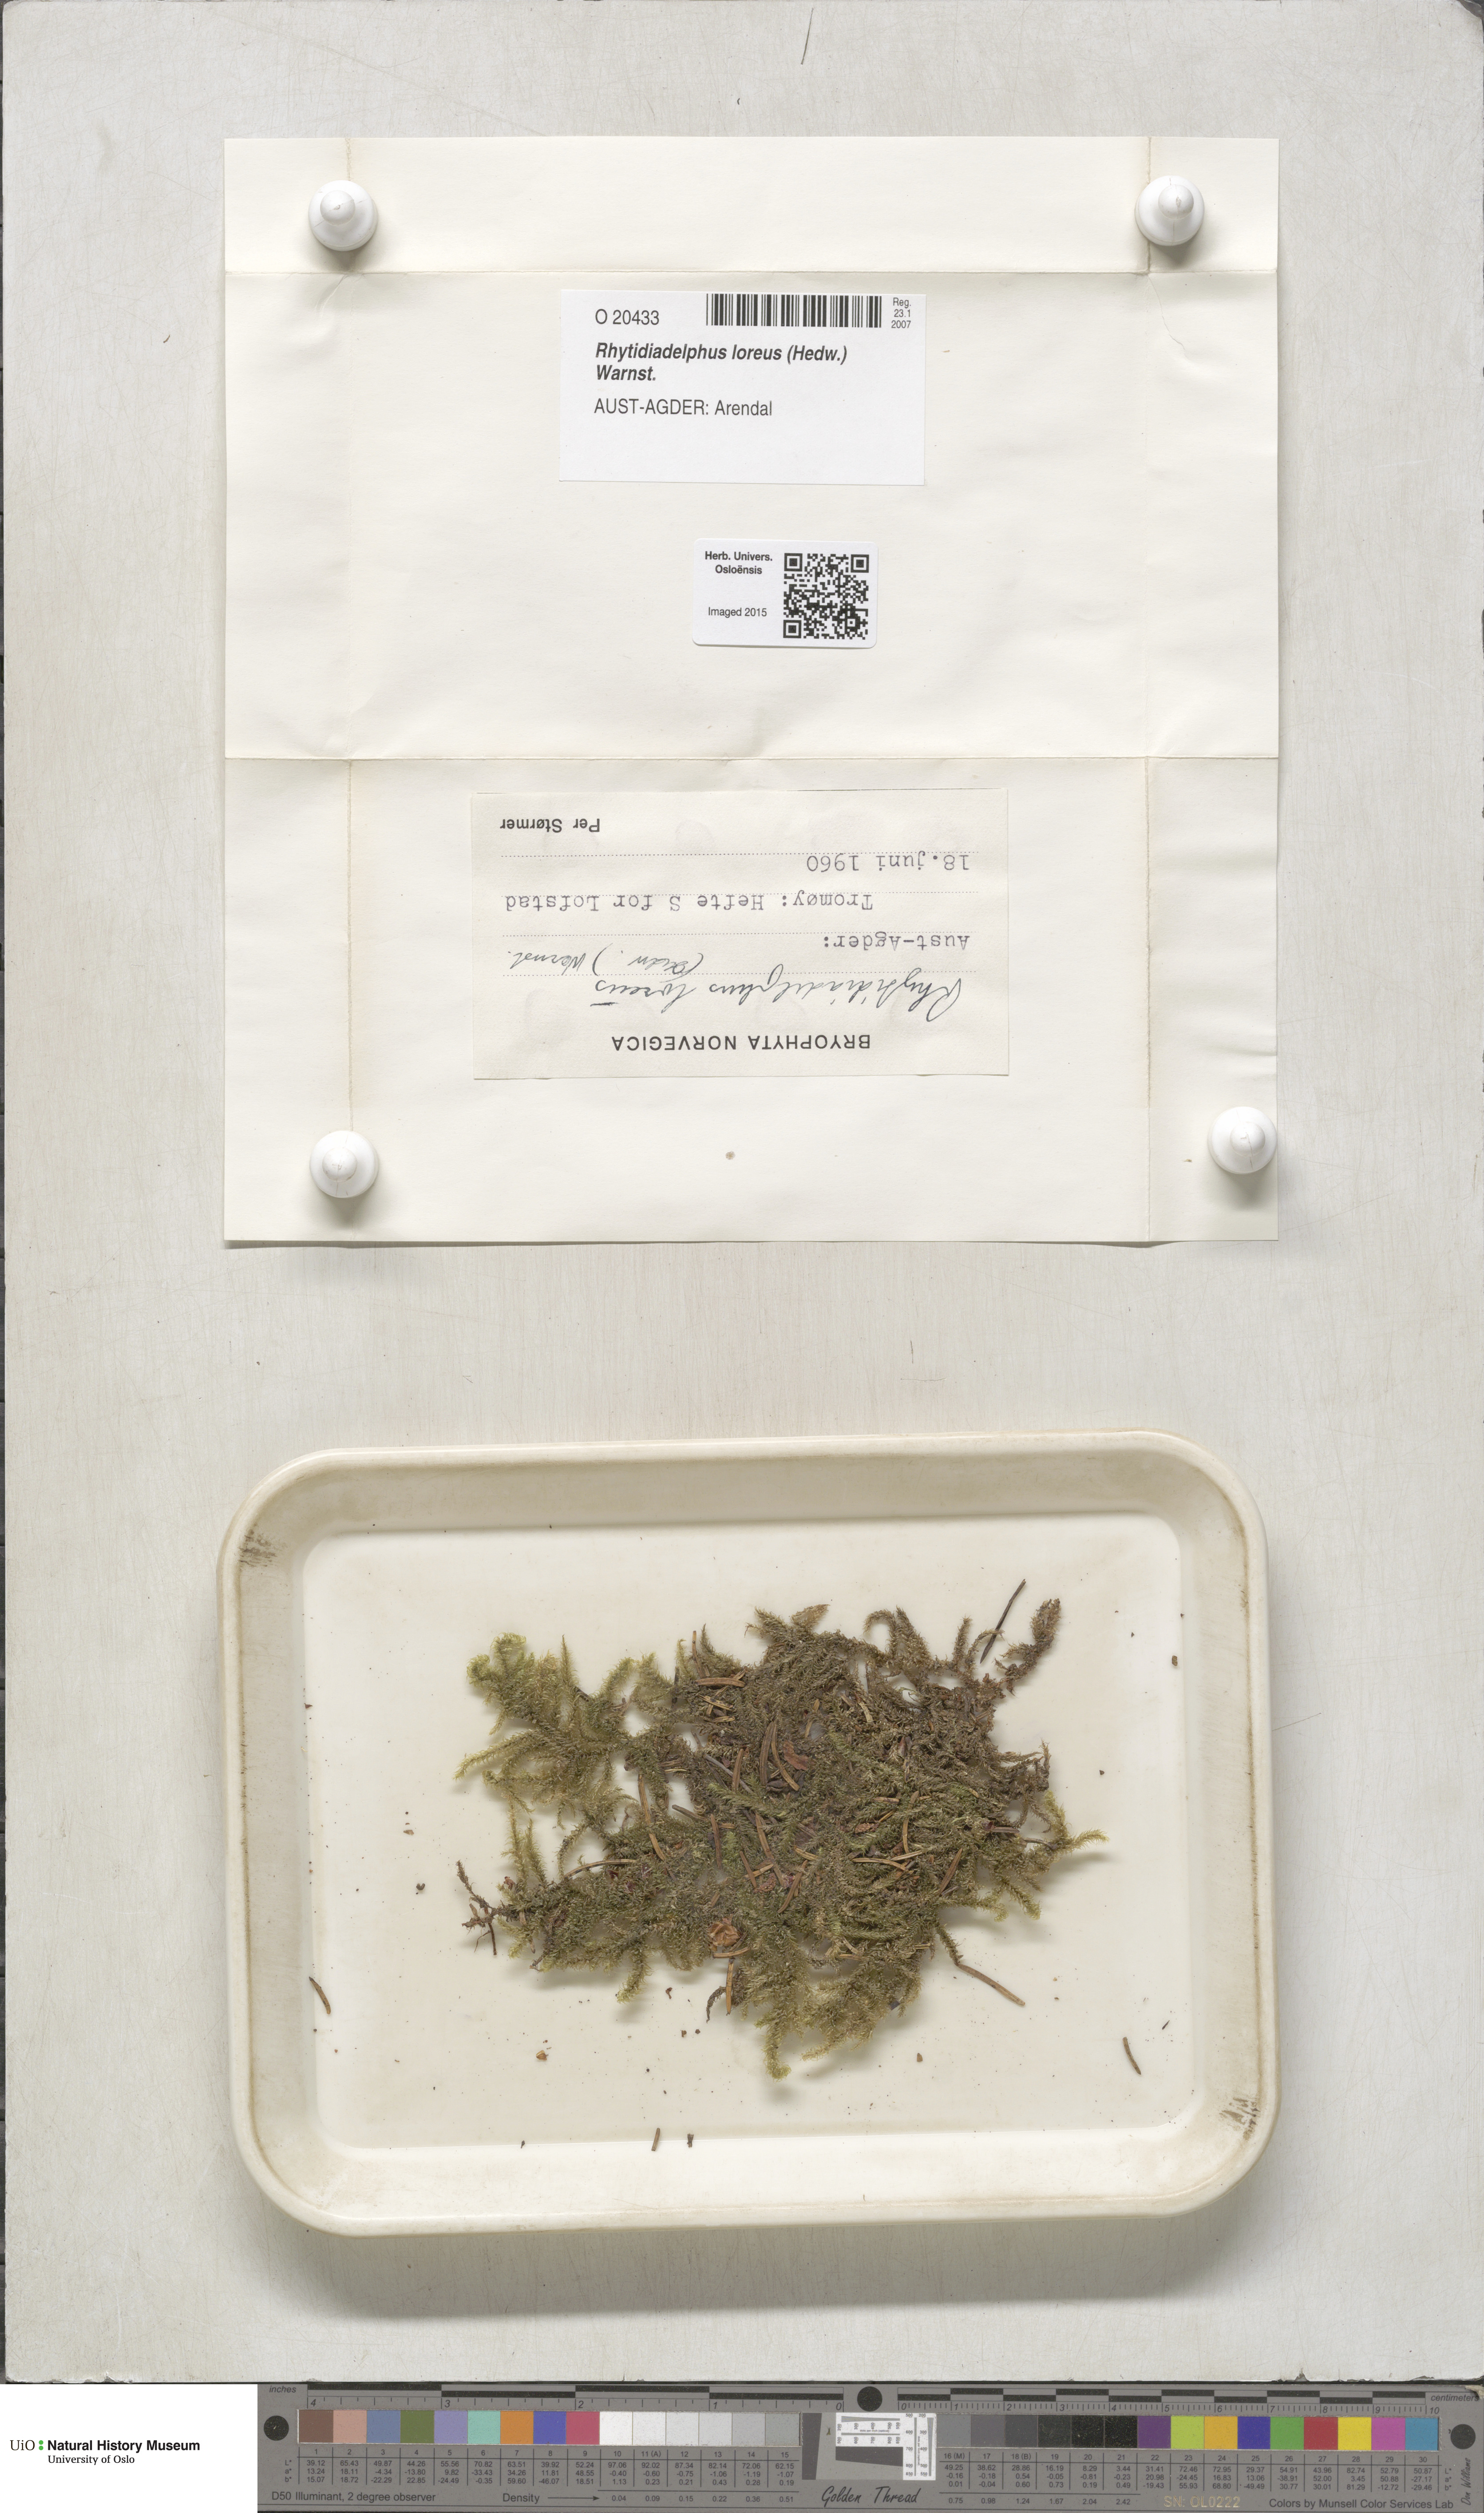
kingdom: Plantae
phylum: Bryophyta
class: Bryopsida
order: Hypnales
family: Hylocomiaceae
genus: Rhytidiadelphus
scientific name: Rhytidiadelphus loreus
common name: Lanky moss
